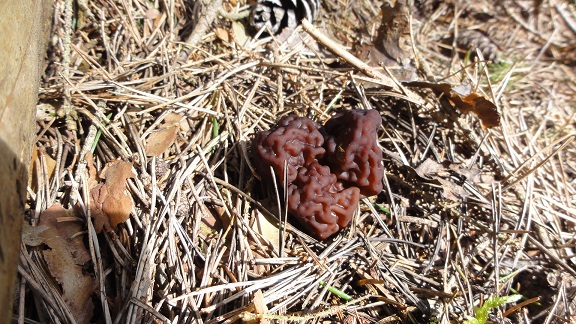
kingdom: Fungi
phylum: Ascomycota
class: Pezizomycetes
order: Pezizales
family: Discinaceae
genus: Gyromitra
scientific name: Gyromitra esculenta
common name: ægte stenmorkel
